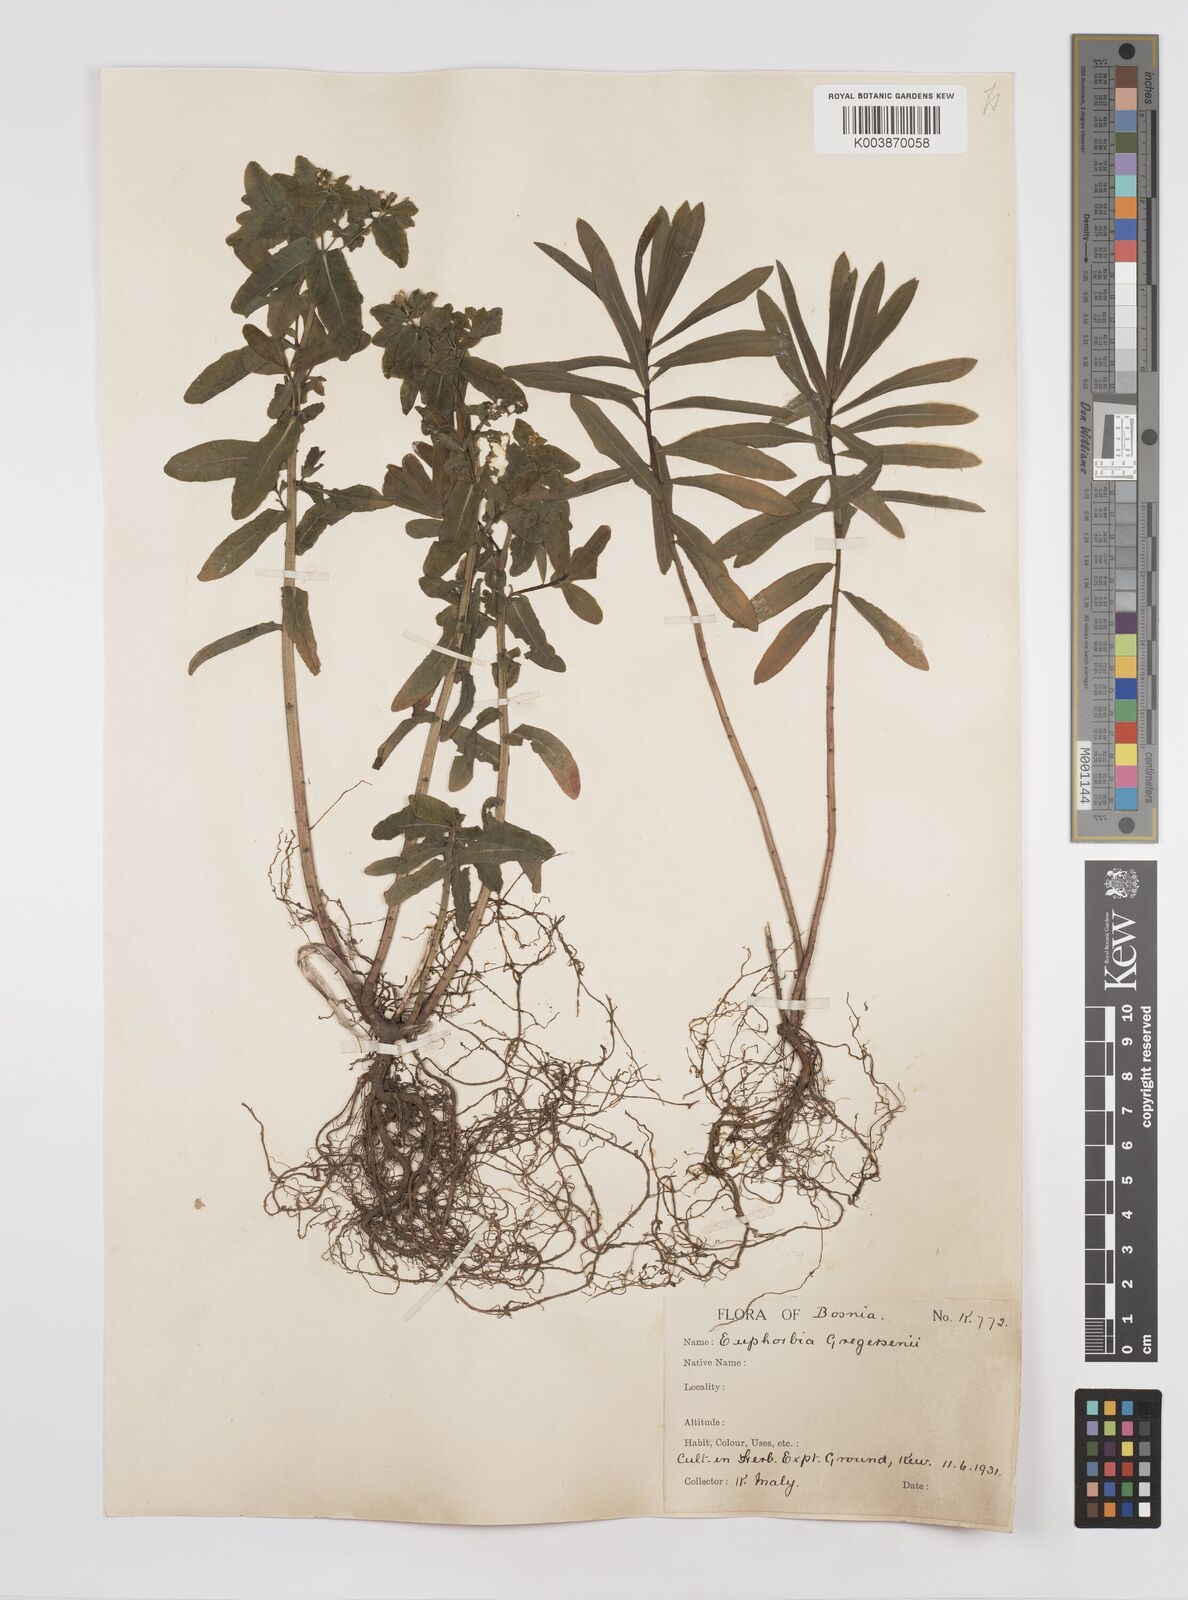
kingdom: Plantae
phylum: Tracheophyta
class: Magnoliopsida
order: Malpighiales
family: Euphorbiaceae
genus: Euphorbia
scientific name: Euphorbia gregersenii
